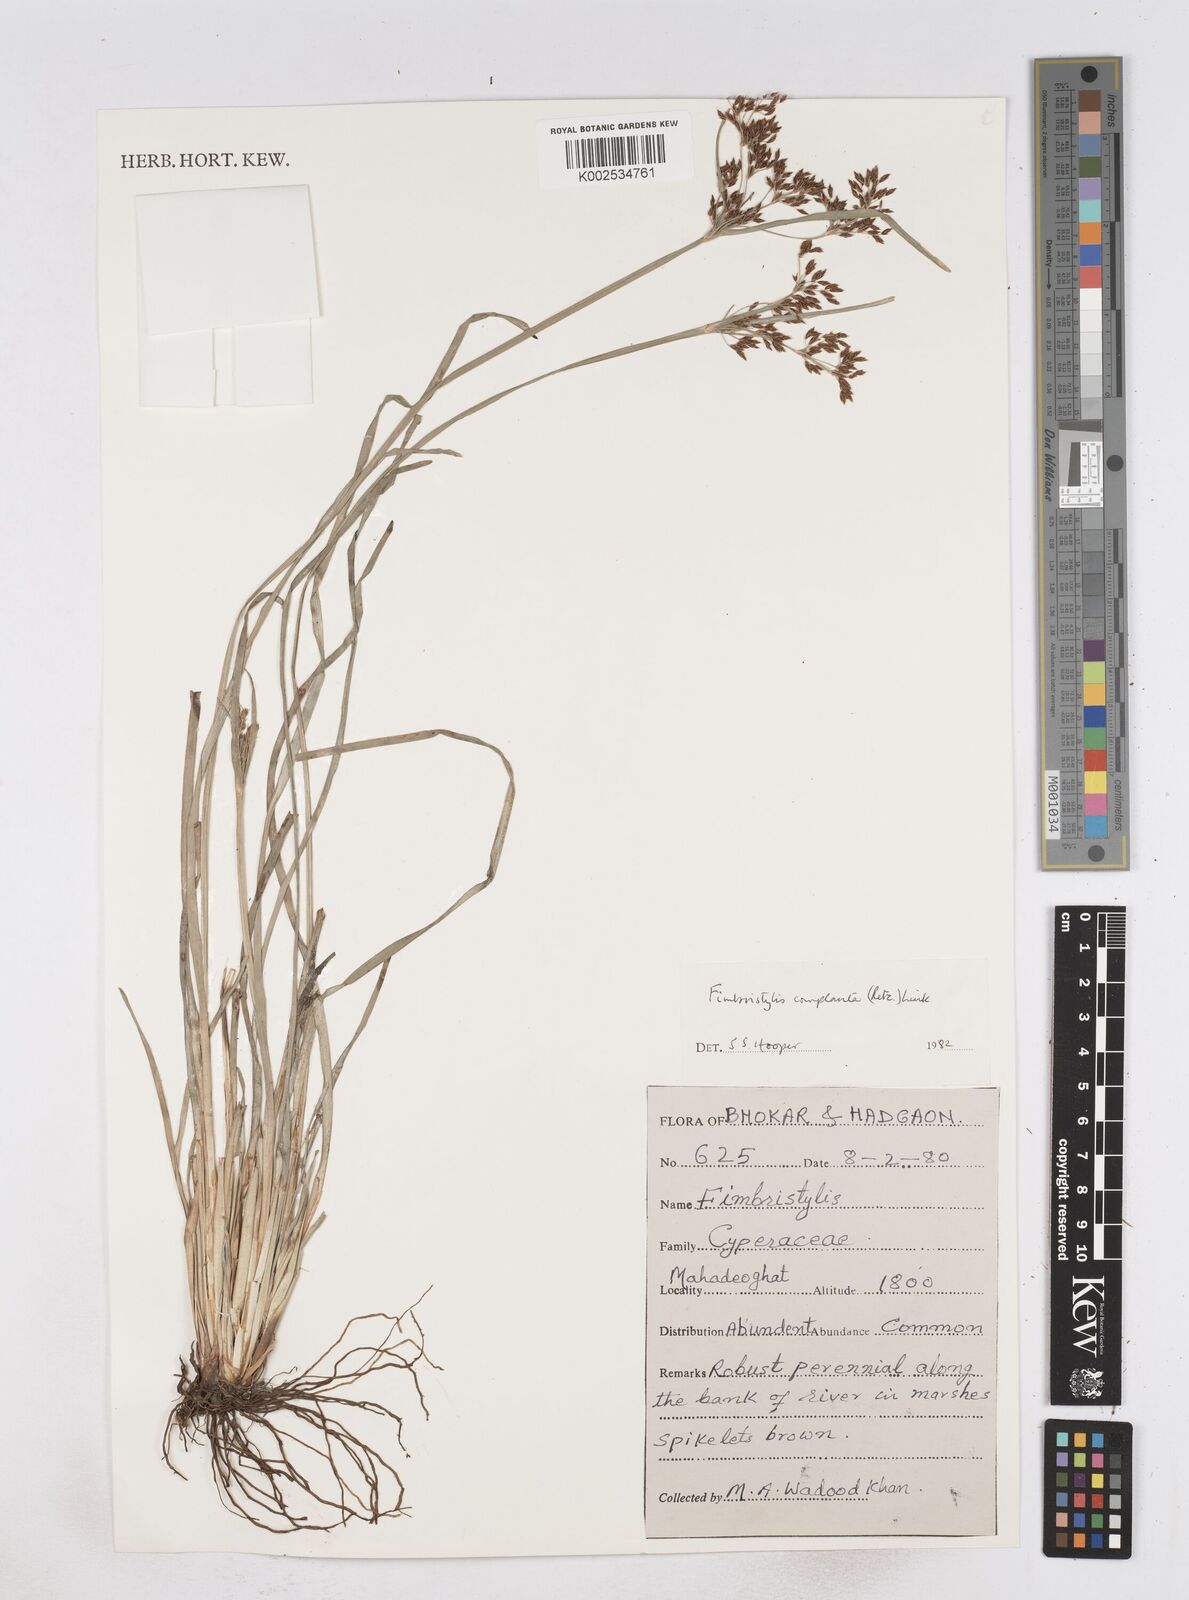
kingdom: Plantae
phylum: Tracheophyta
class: Liliopsida
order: Poales
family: Cyperaceae
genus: Fimbristylis
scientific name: Fimbristylis complanata
